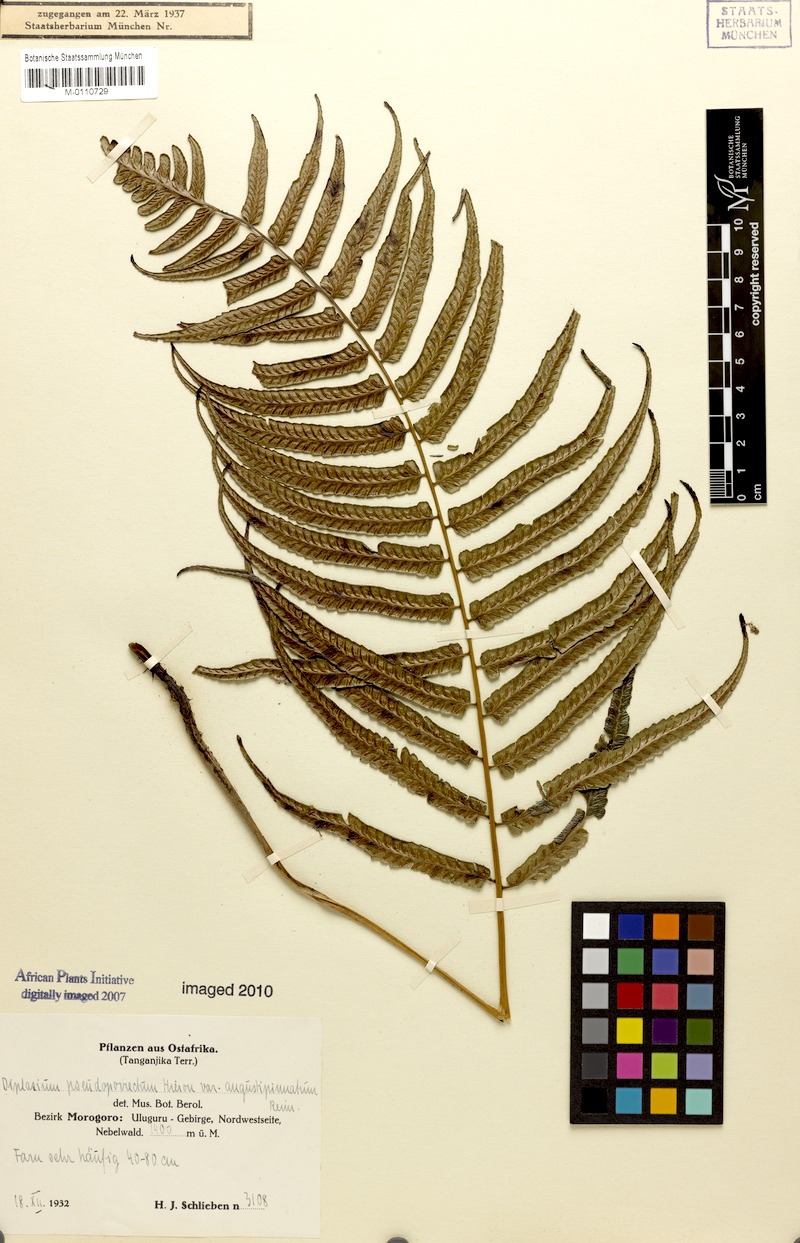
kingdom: Plantae
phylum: Tracheophyta
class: Polypodiopsida
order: Polypodiales
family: Athyriaceae
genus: Diplazium
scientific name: Diplazium pseudoporrectum
